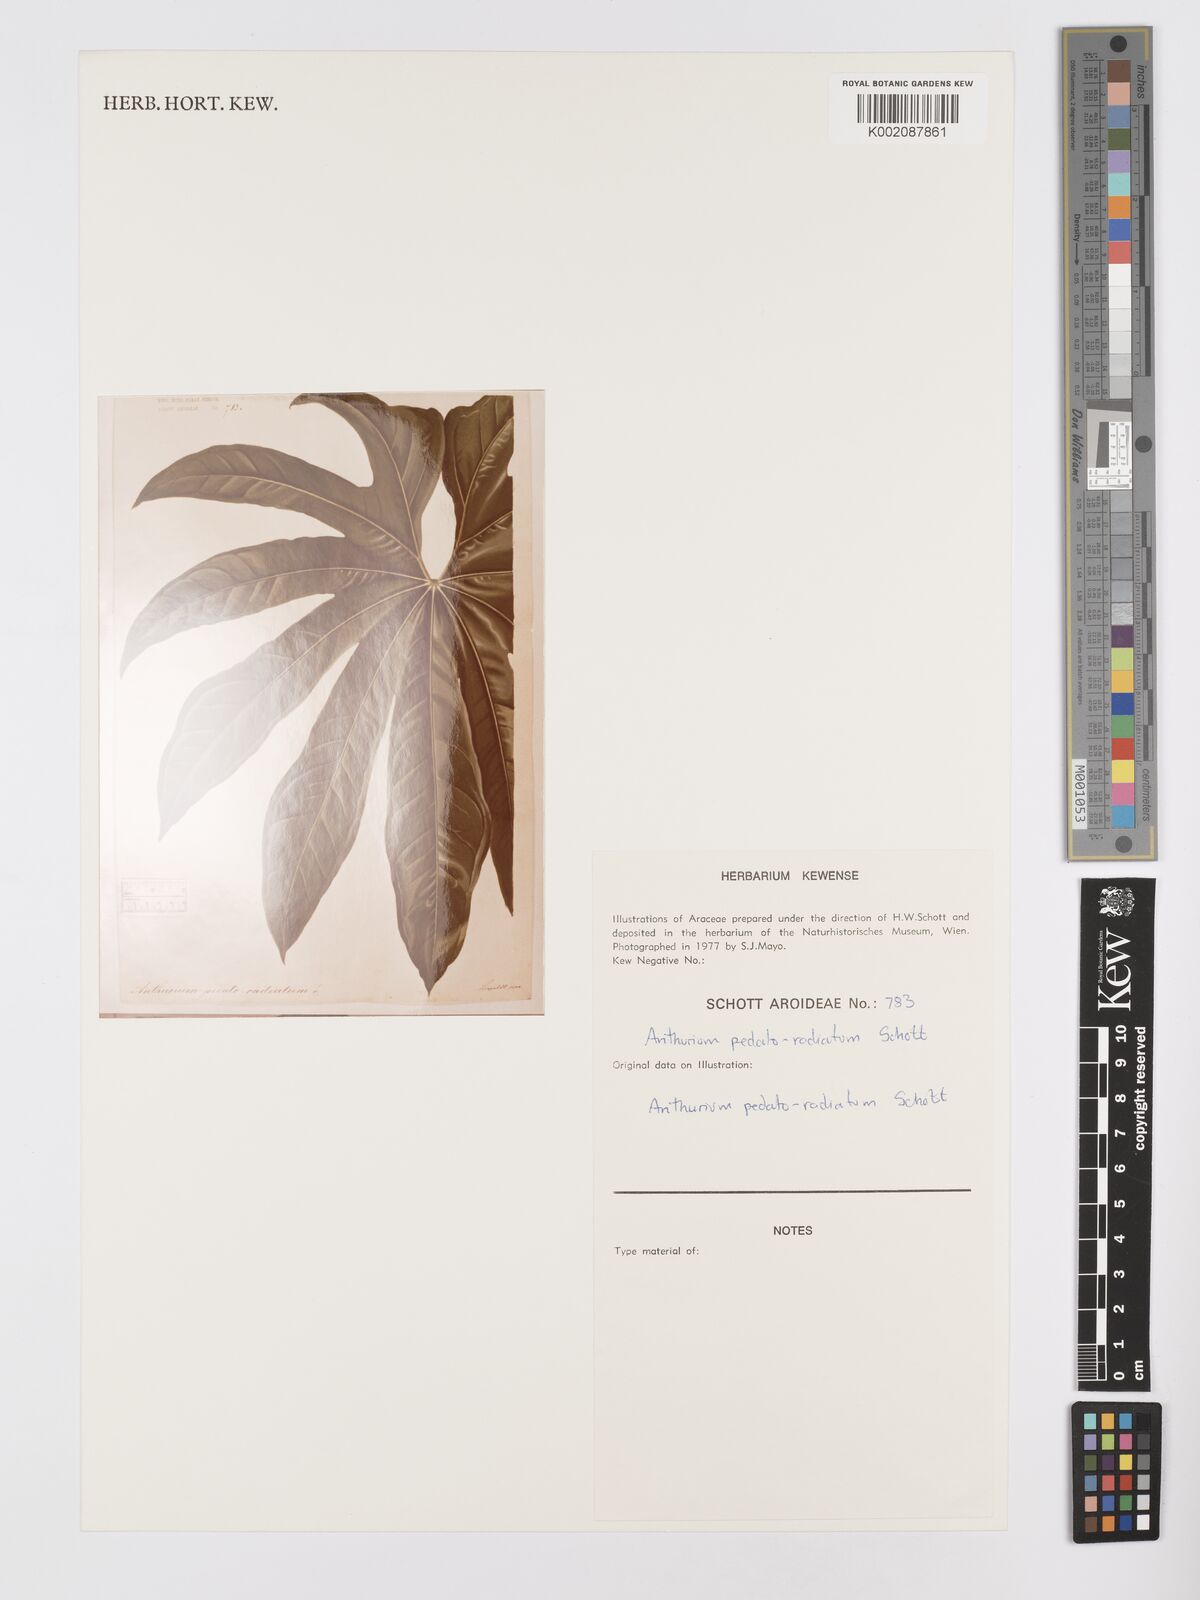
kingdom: Plantae
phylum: Tracheophyta
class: Liliopsida
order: Alismatales
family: Araceae
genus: Anthurium
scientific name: Anthurium pedatoradiatum
